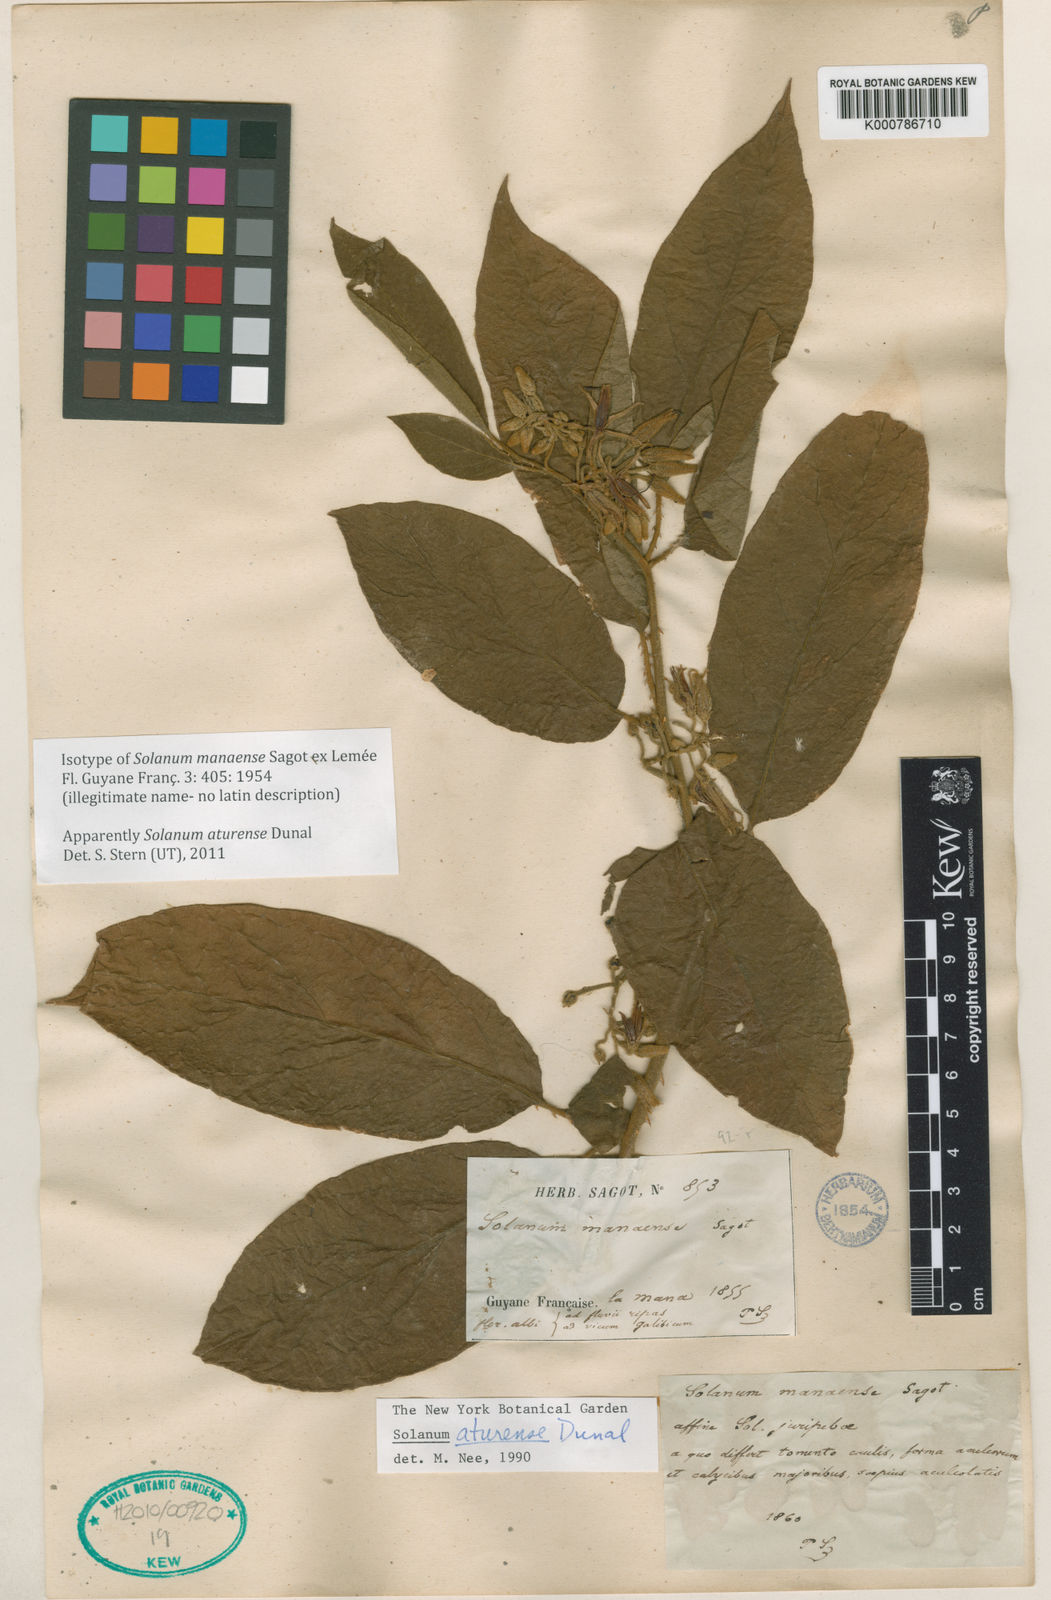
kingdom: Plantae
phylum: Tracheophyta
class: Magnoliopsida
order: Solanales
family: Solanaceae
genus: Solanum
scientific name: Solanum
